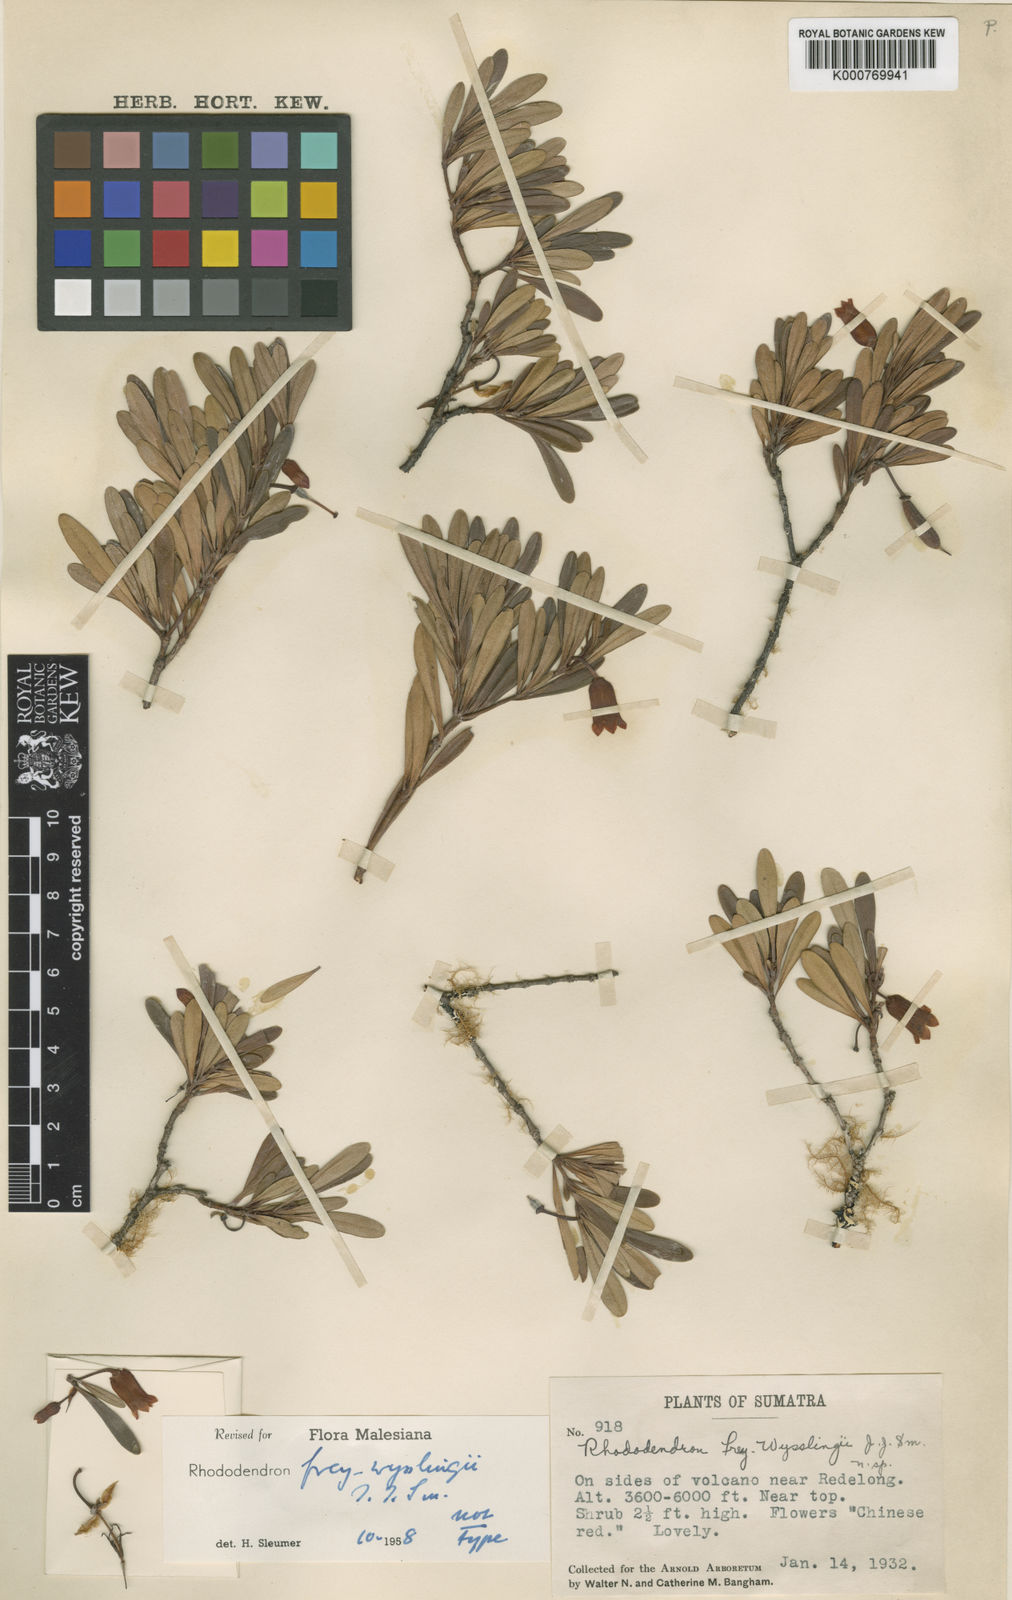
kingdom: Plantae
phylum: Tracheophyta
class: Magnoliopsida
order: Ericales
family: Ericaceae
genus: Rhododendron
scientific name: Rhododendron frey-wysslingii
